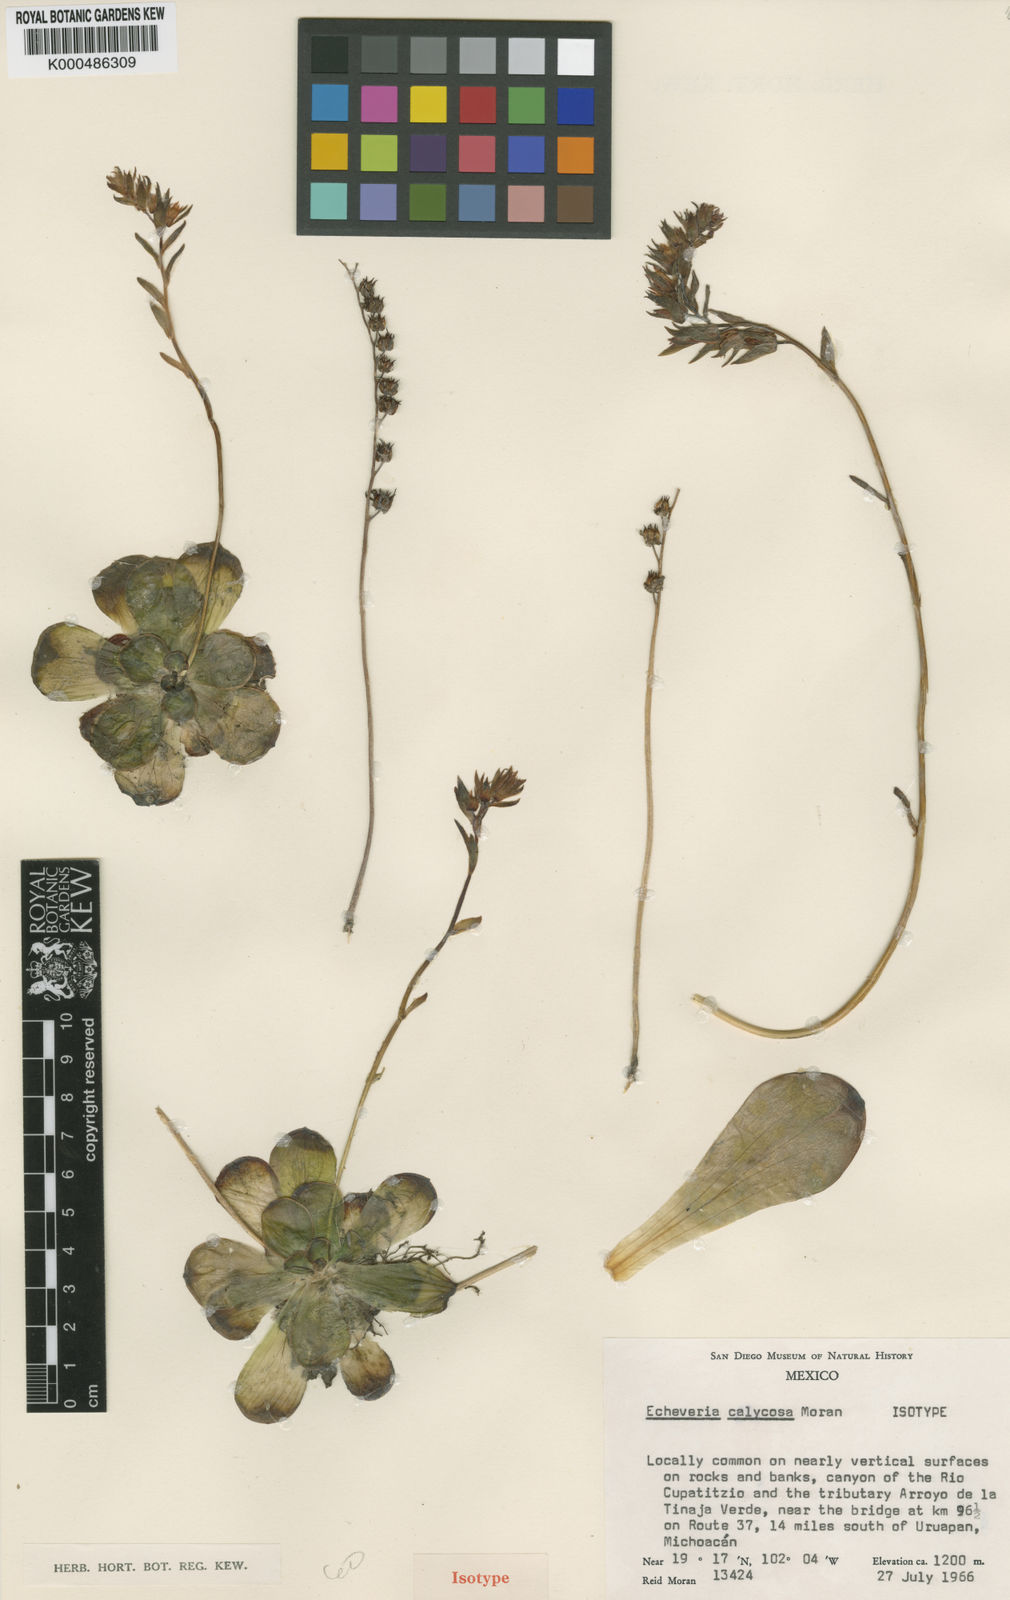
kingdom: Plantae
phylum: Tracheophyta
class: Magnoliopsida
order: Saxifragales
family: Crassulaceae
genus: Echeveria
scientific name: Echeveria calycosa
